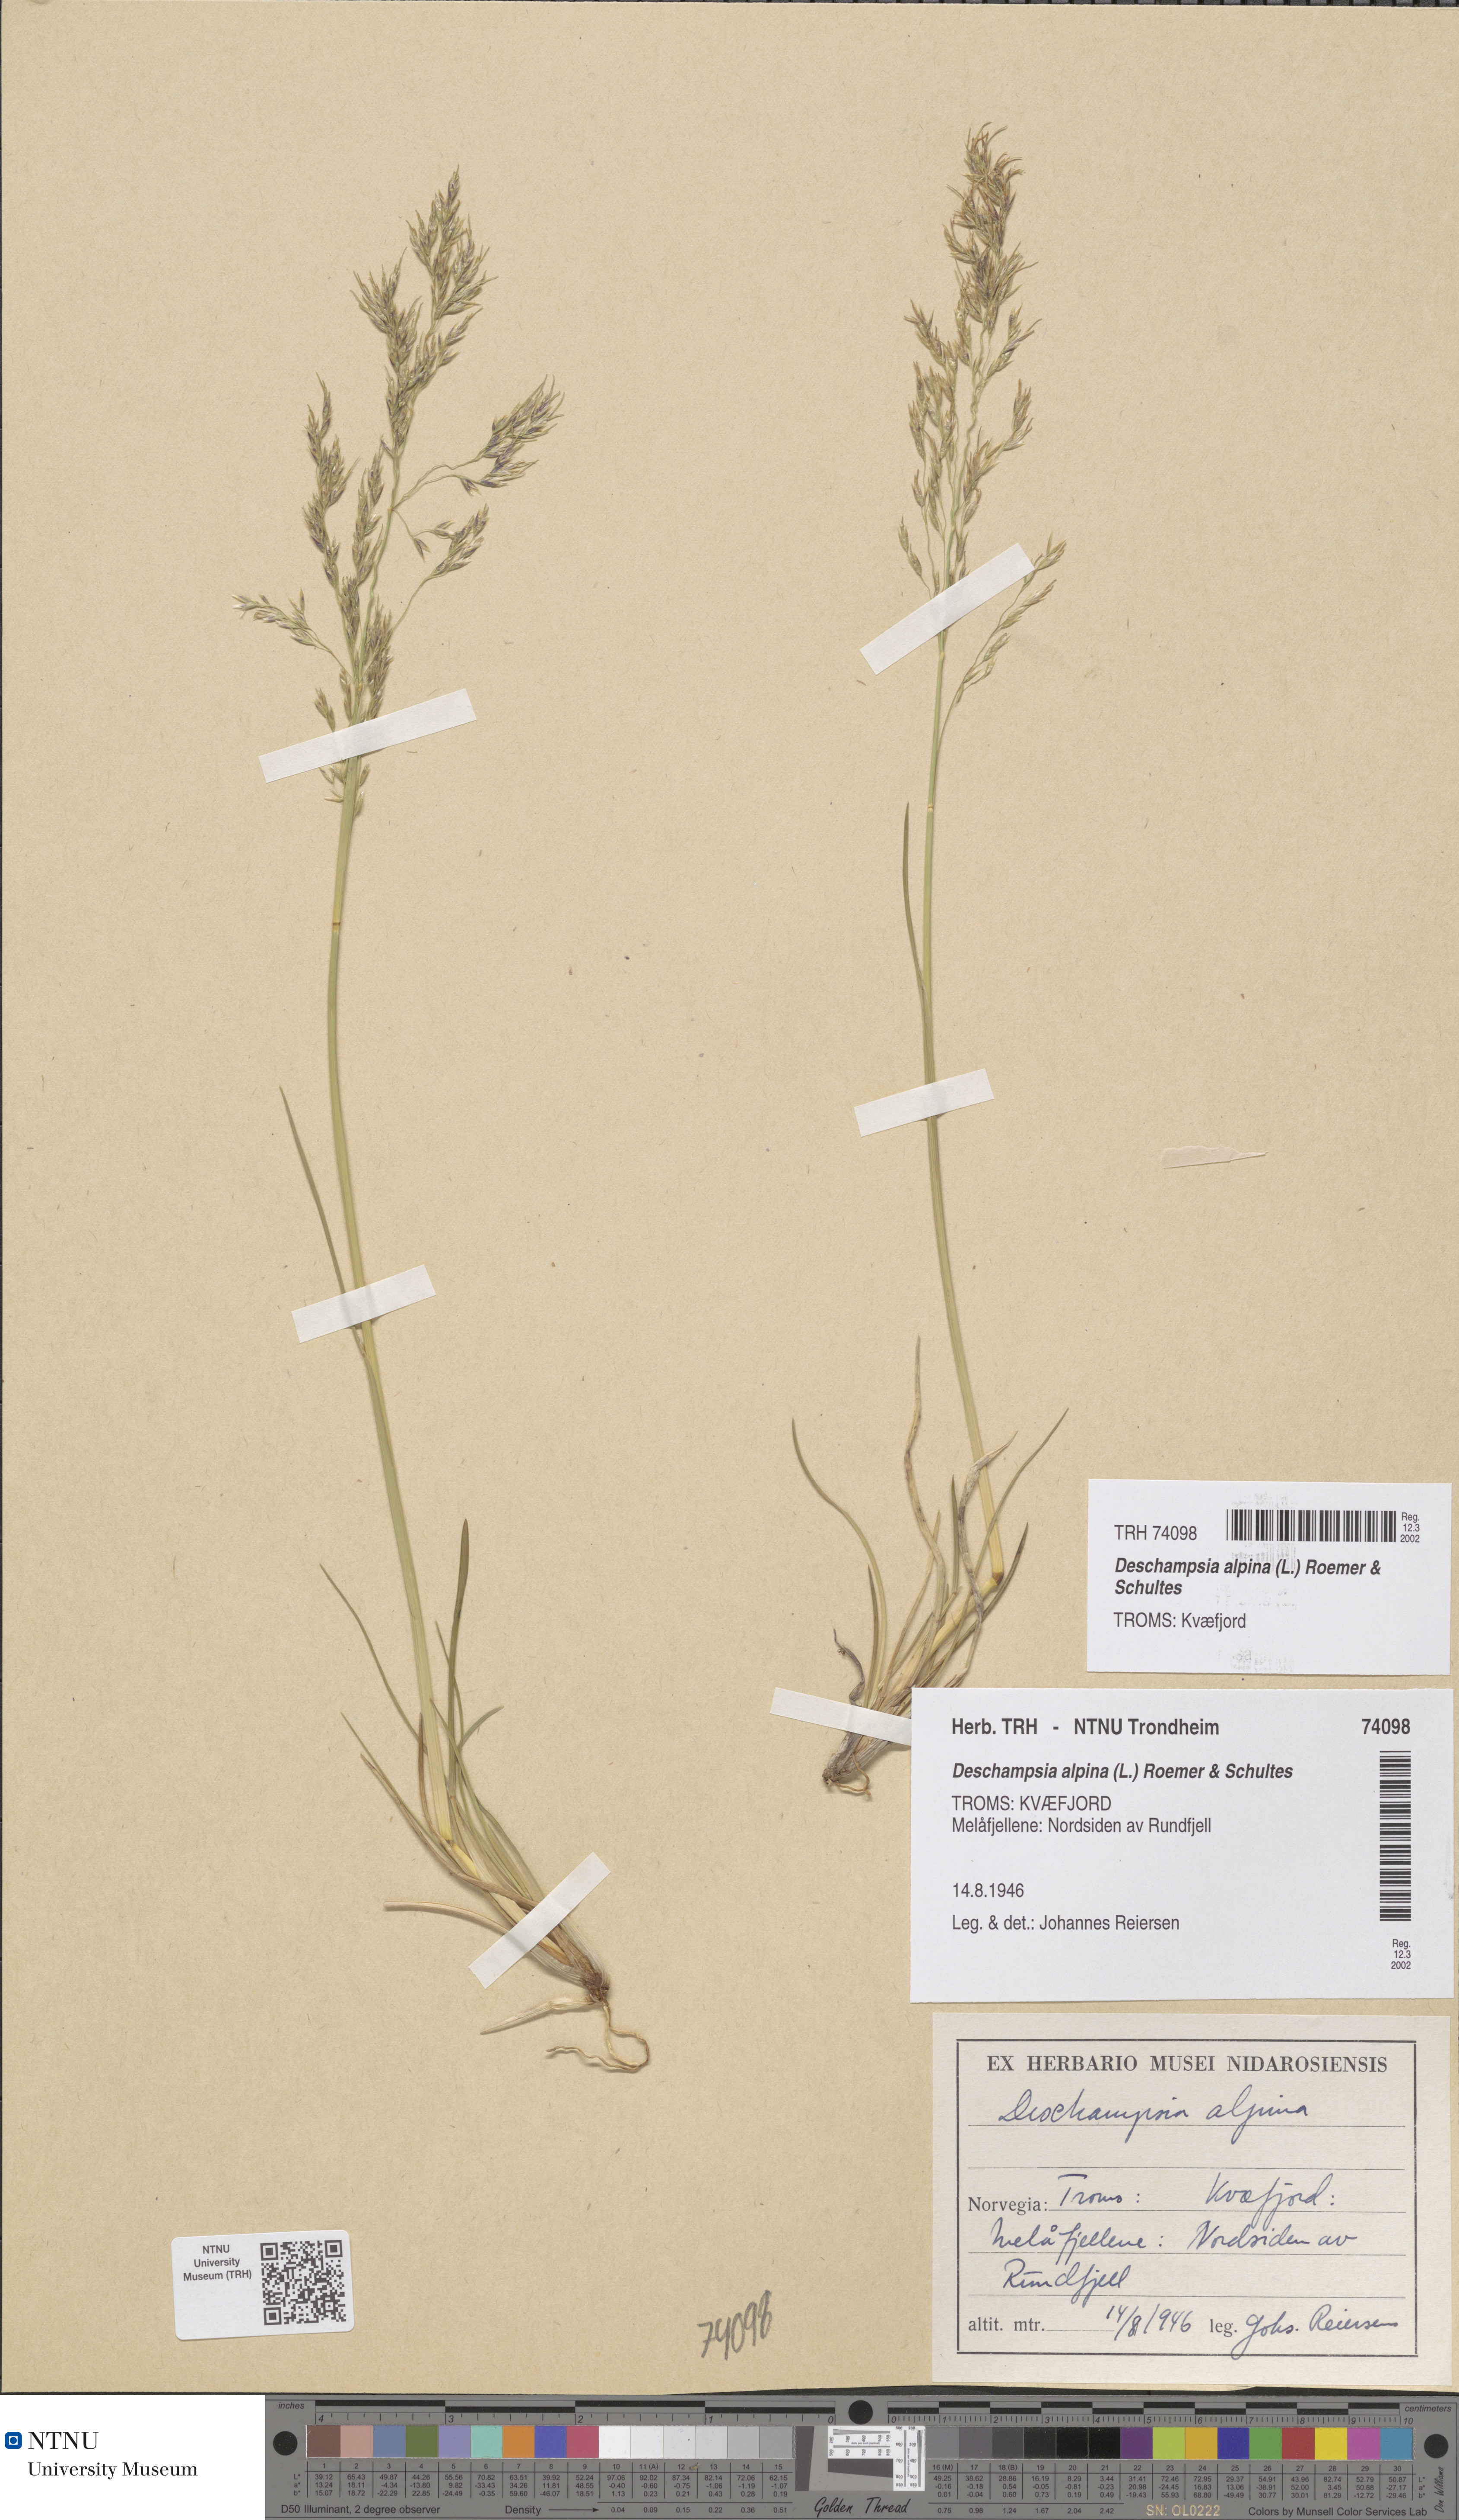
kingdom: Plantae
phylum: Tracheophyta
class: Liliopsida
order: Poales
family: Poaceae
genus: Deschampsia
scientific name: Deschampsia cespitosa
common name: Tufted hair-grass
